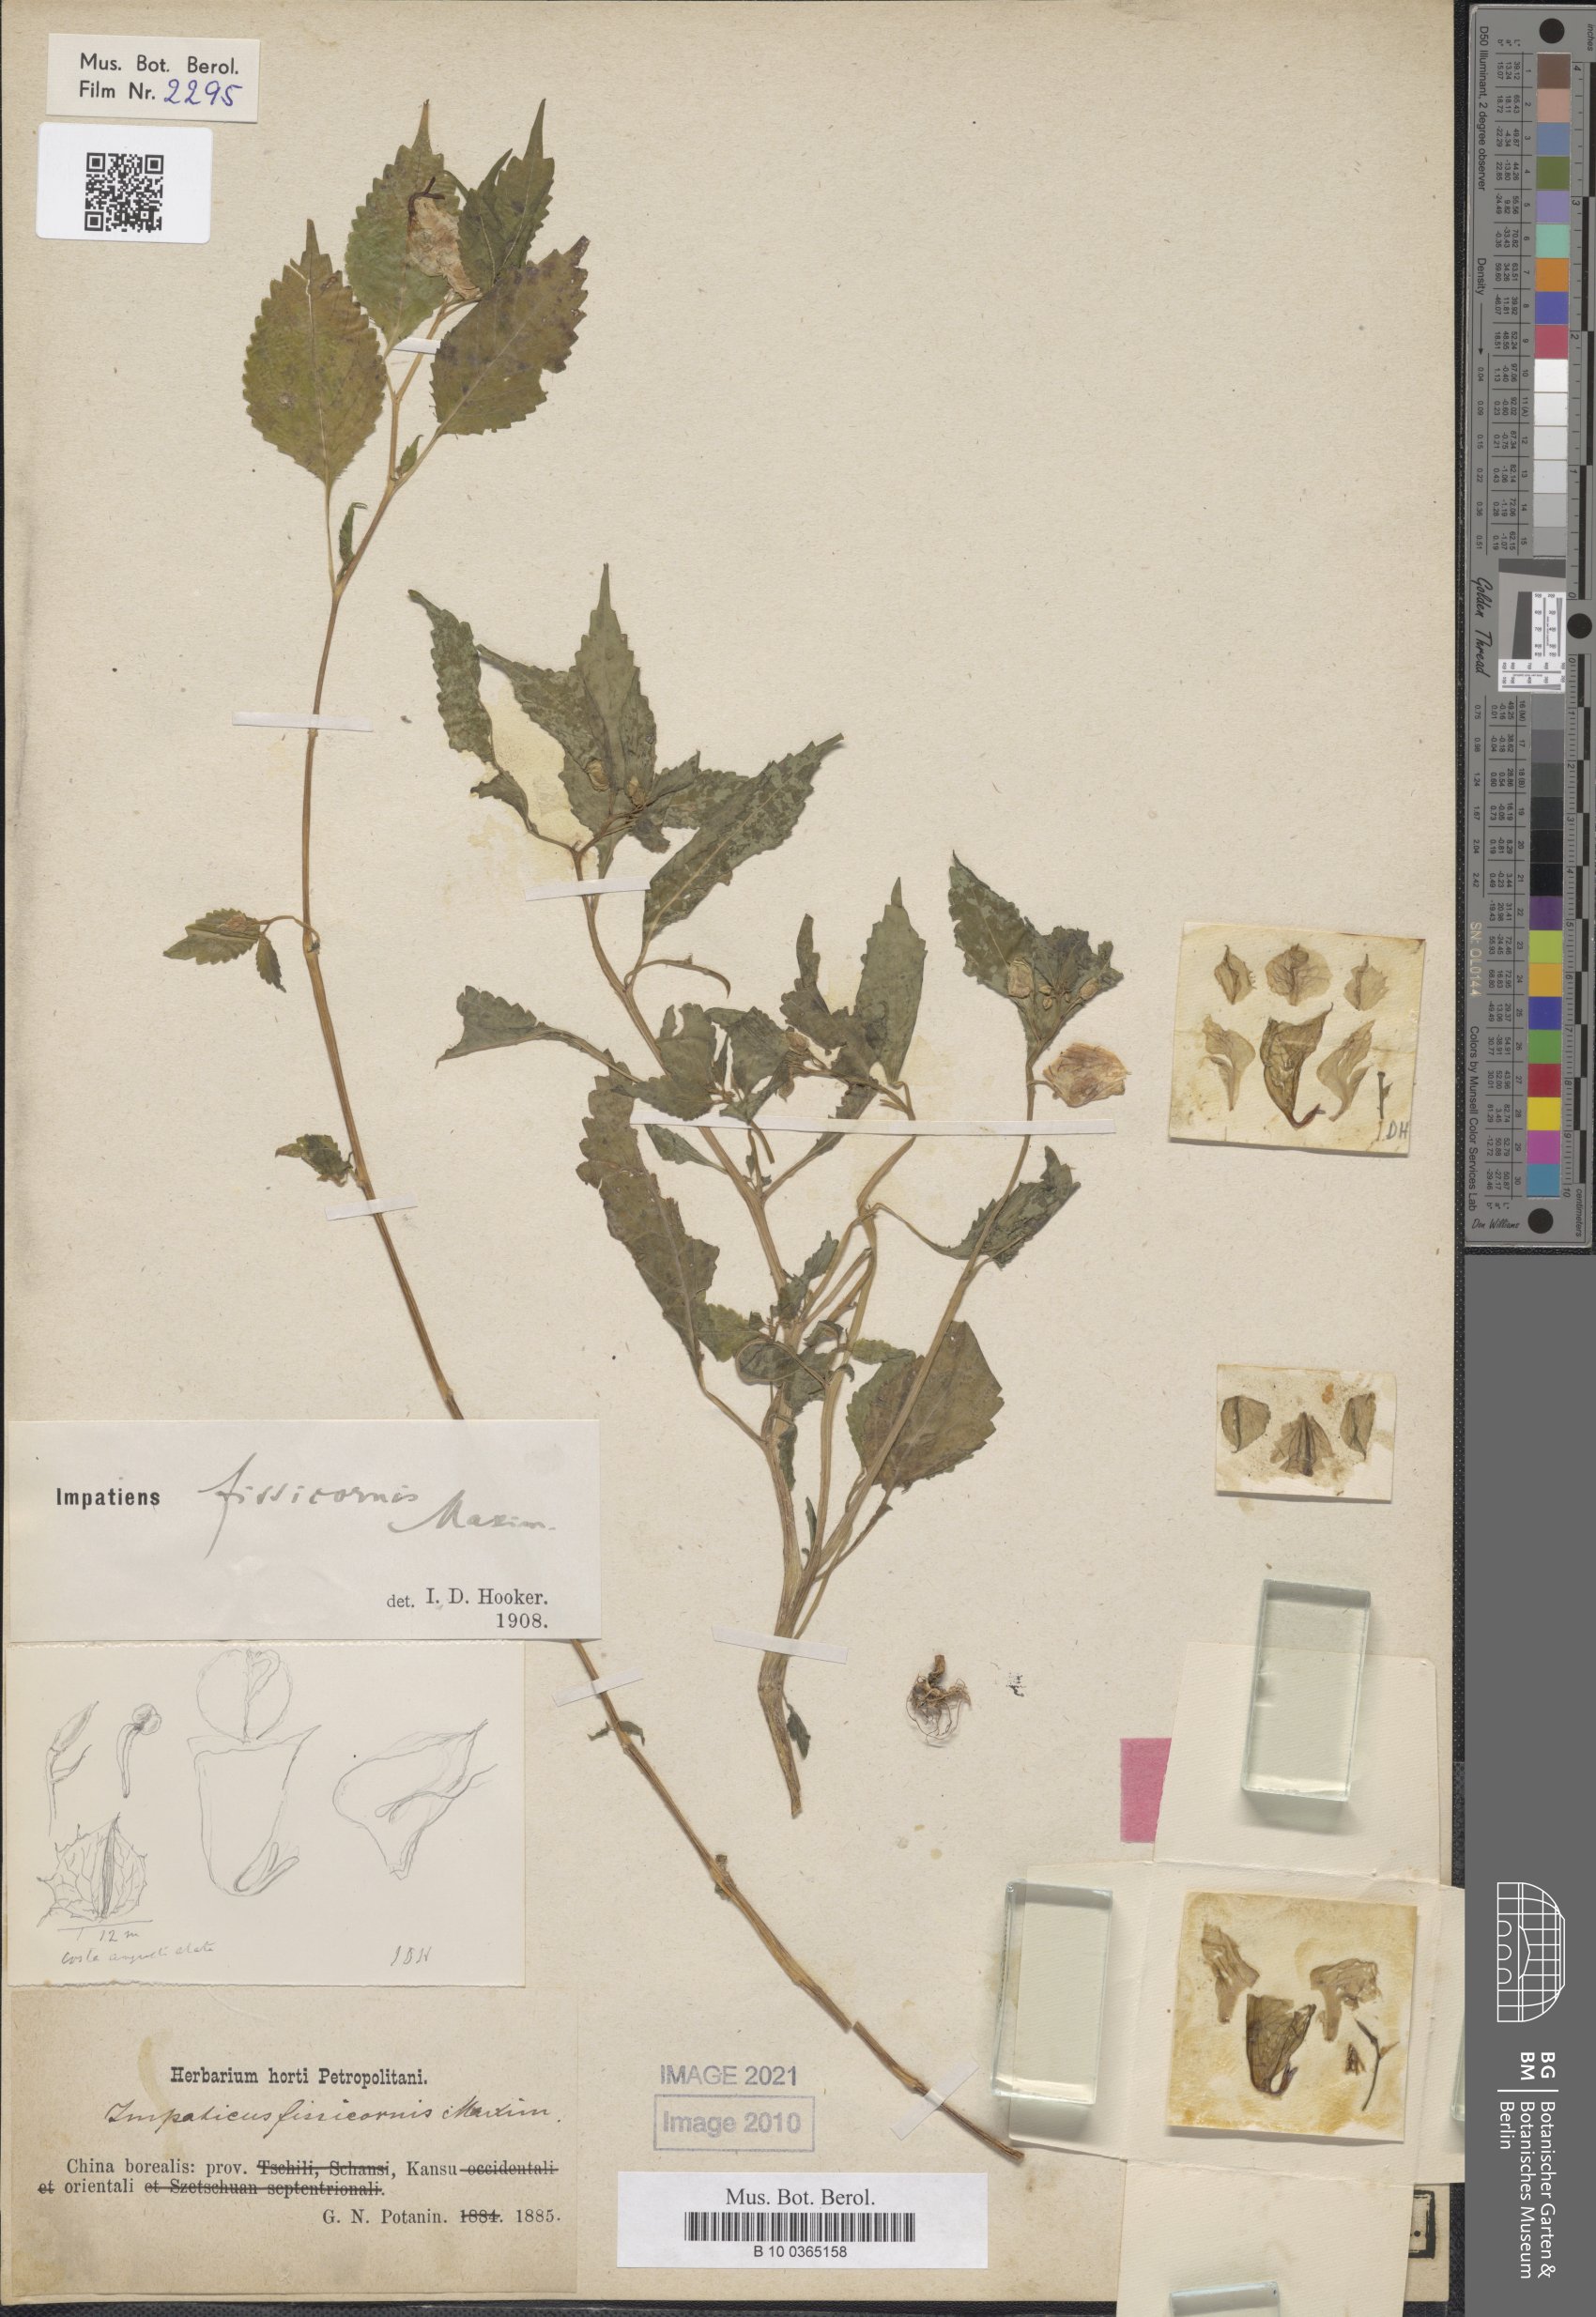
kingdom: Plantae
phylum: Tracheophyta
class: Magnoliopsida
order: Ericales
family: Balsaminaceae
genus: Impatiens
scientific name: Impatiens fissicornis
